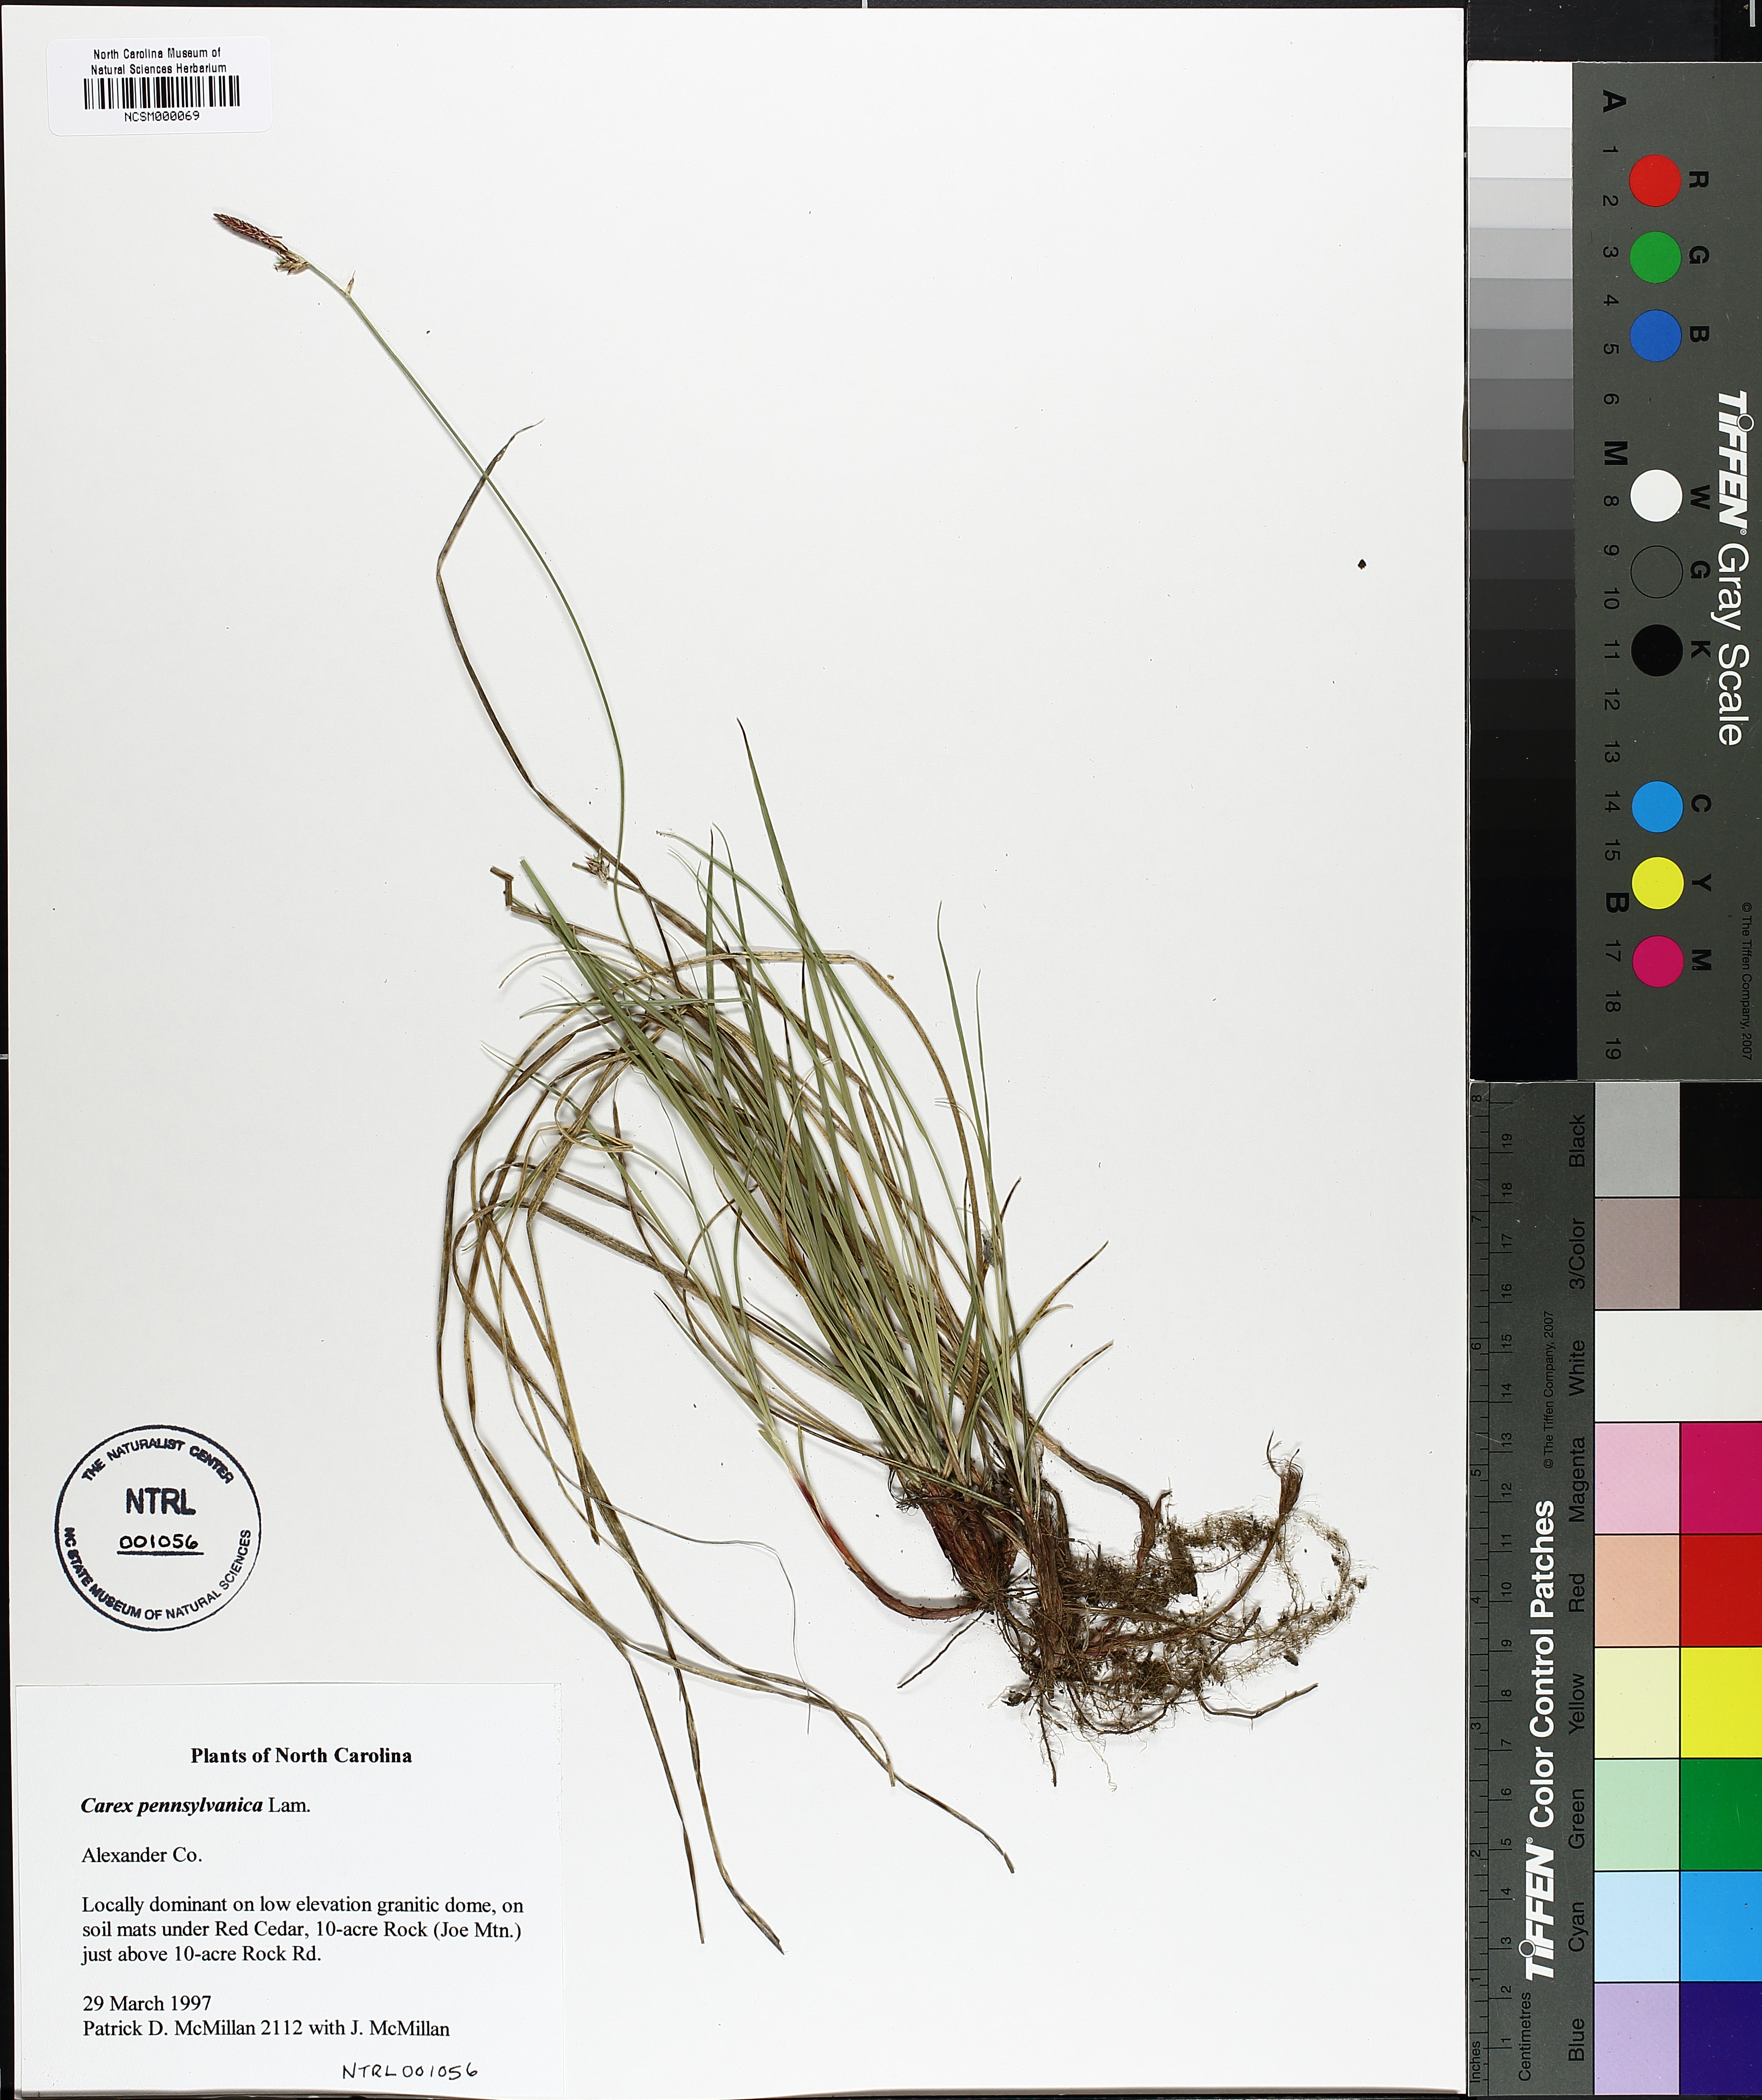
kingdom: Plantae
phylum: Tracheophyta
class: Liliopsida
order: Poales
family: Cyperaceae
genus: Carex
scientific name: Carex pensylvanica
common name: Common oak sedge
